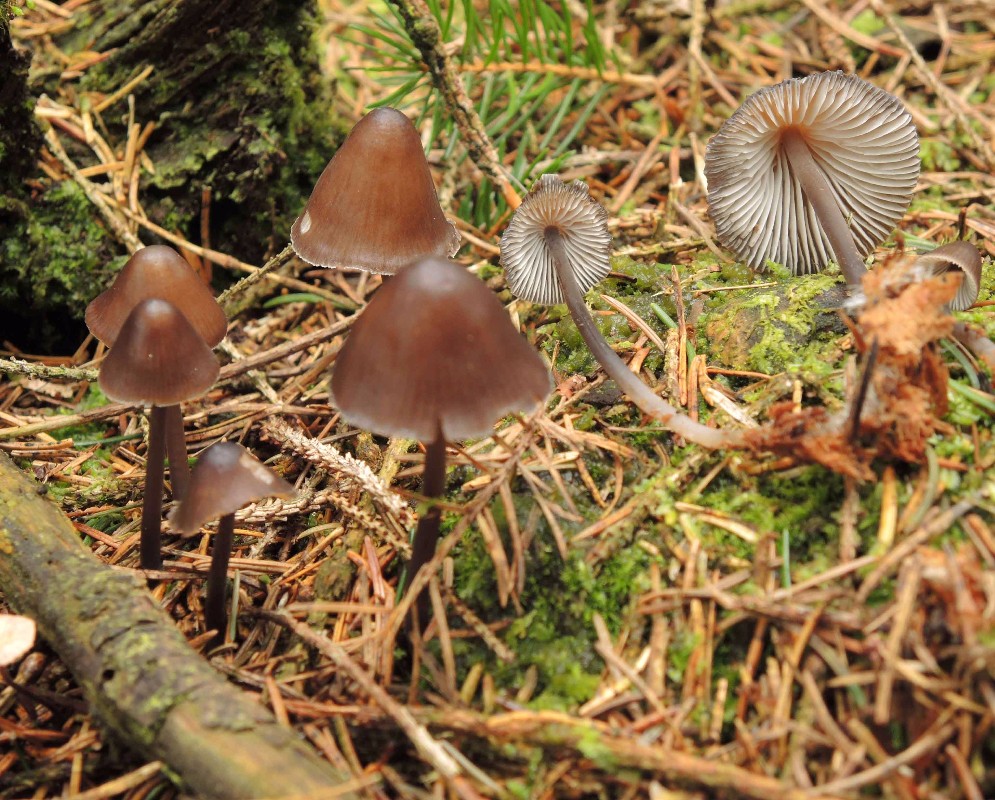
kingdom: Fungi
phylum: Basidiomycota
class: Agaricomycetes
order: Agaricales
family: Mycenaceae
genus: Mycena
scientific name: Mycena silvae-nigrae
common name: tidlig huesvamp
